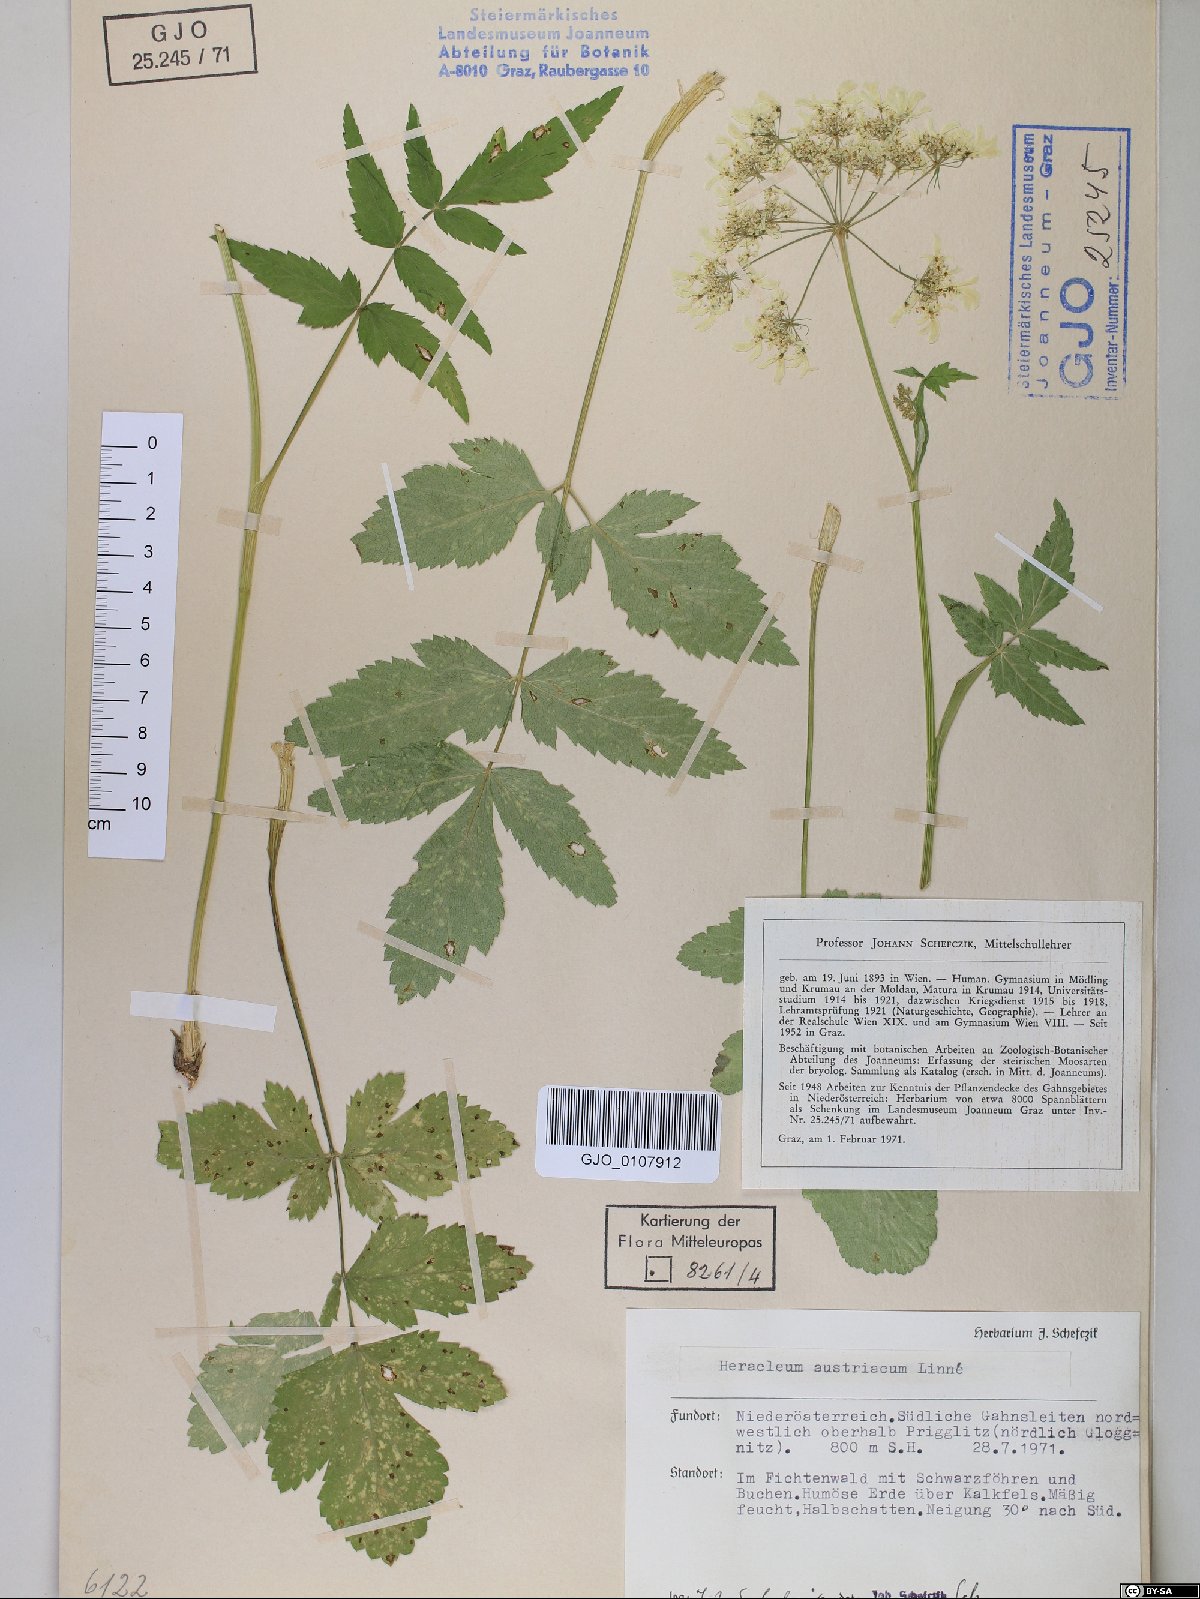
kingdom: Plantae
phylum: Tracheophyta
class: Magnoliopsida
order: Apiales
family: Apiaceae
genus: Heracleum
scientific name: Heracleum austriacum
